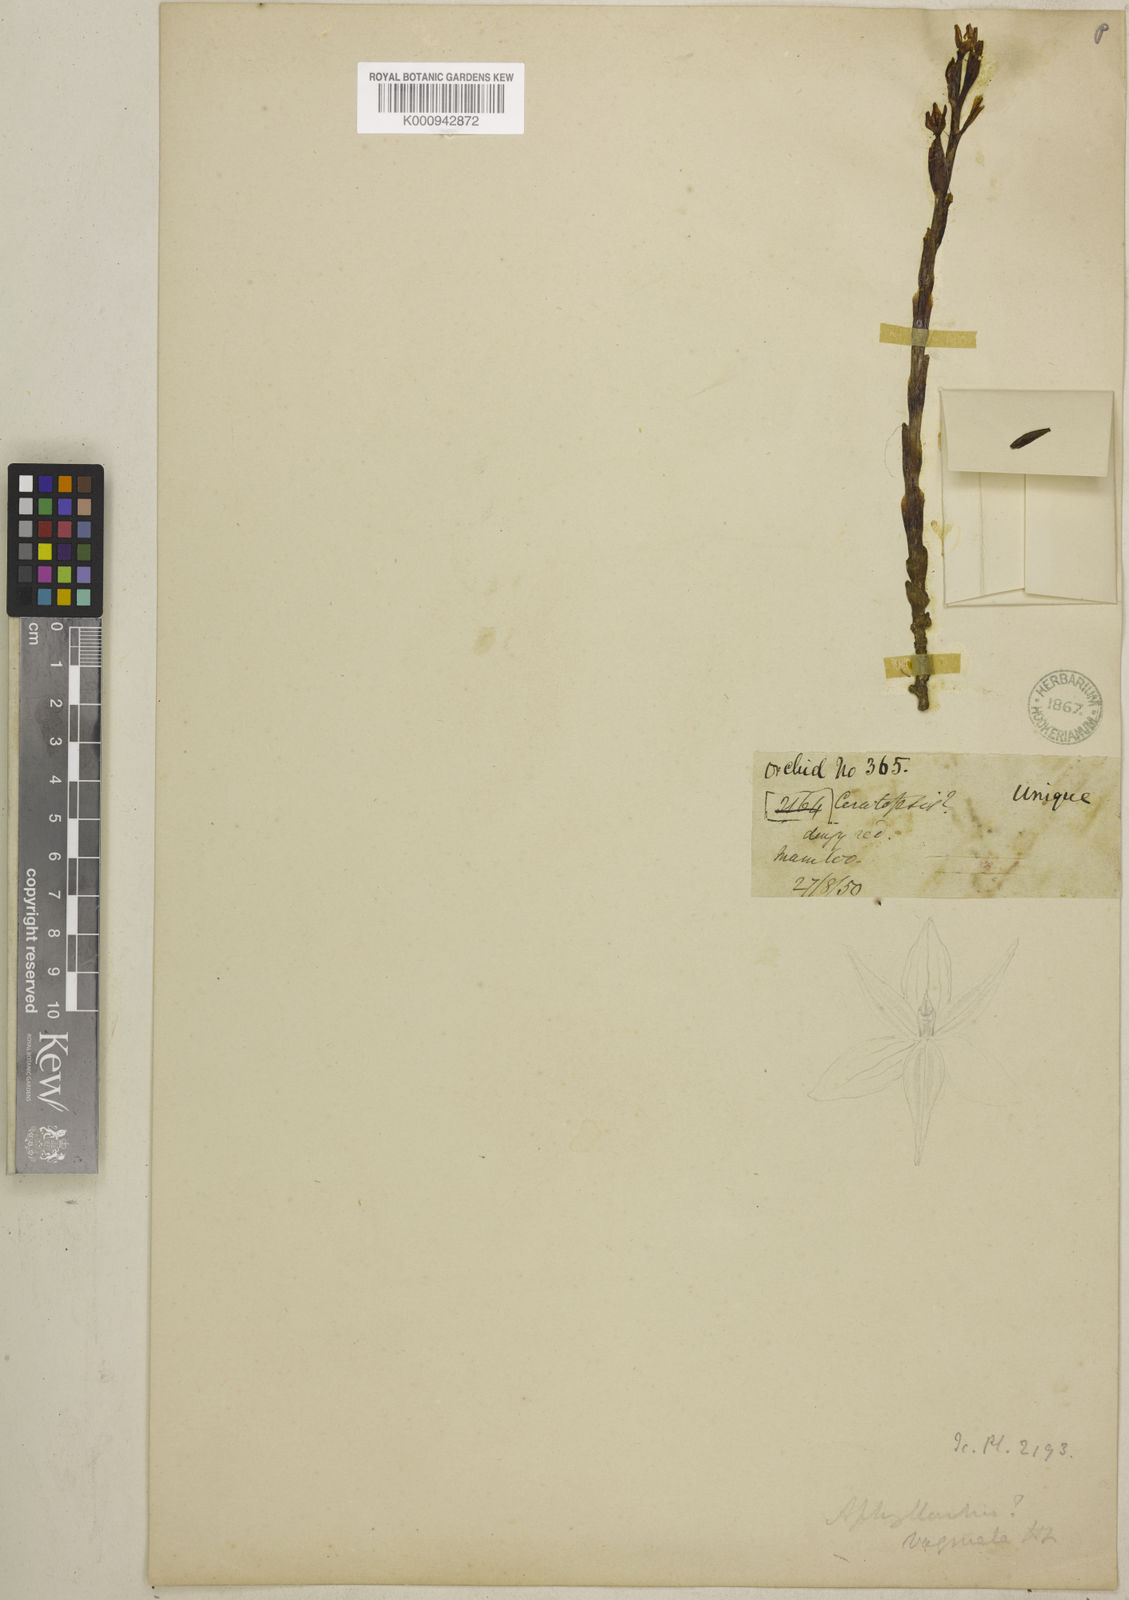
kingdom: Plantae
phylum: Tracheophyta
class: Liliopsida
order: Asparagales
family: Orchidaceae
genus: Chamaegastrodia
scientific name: Chamaegastrodia vaginata
